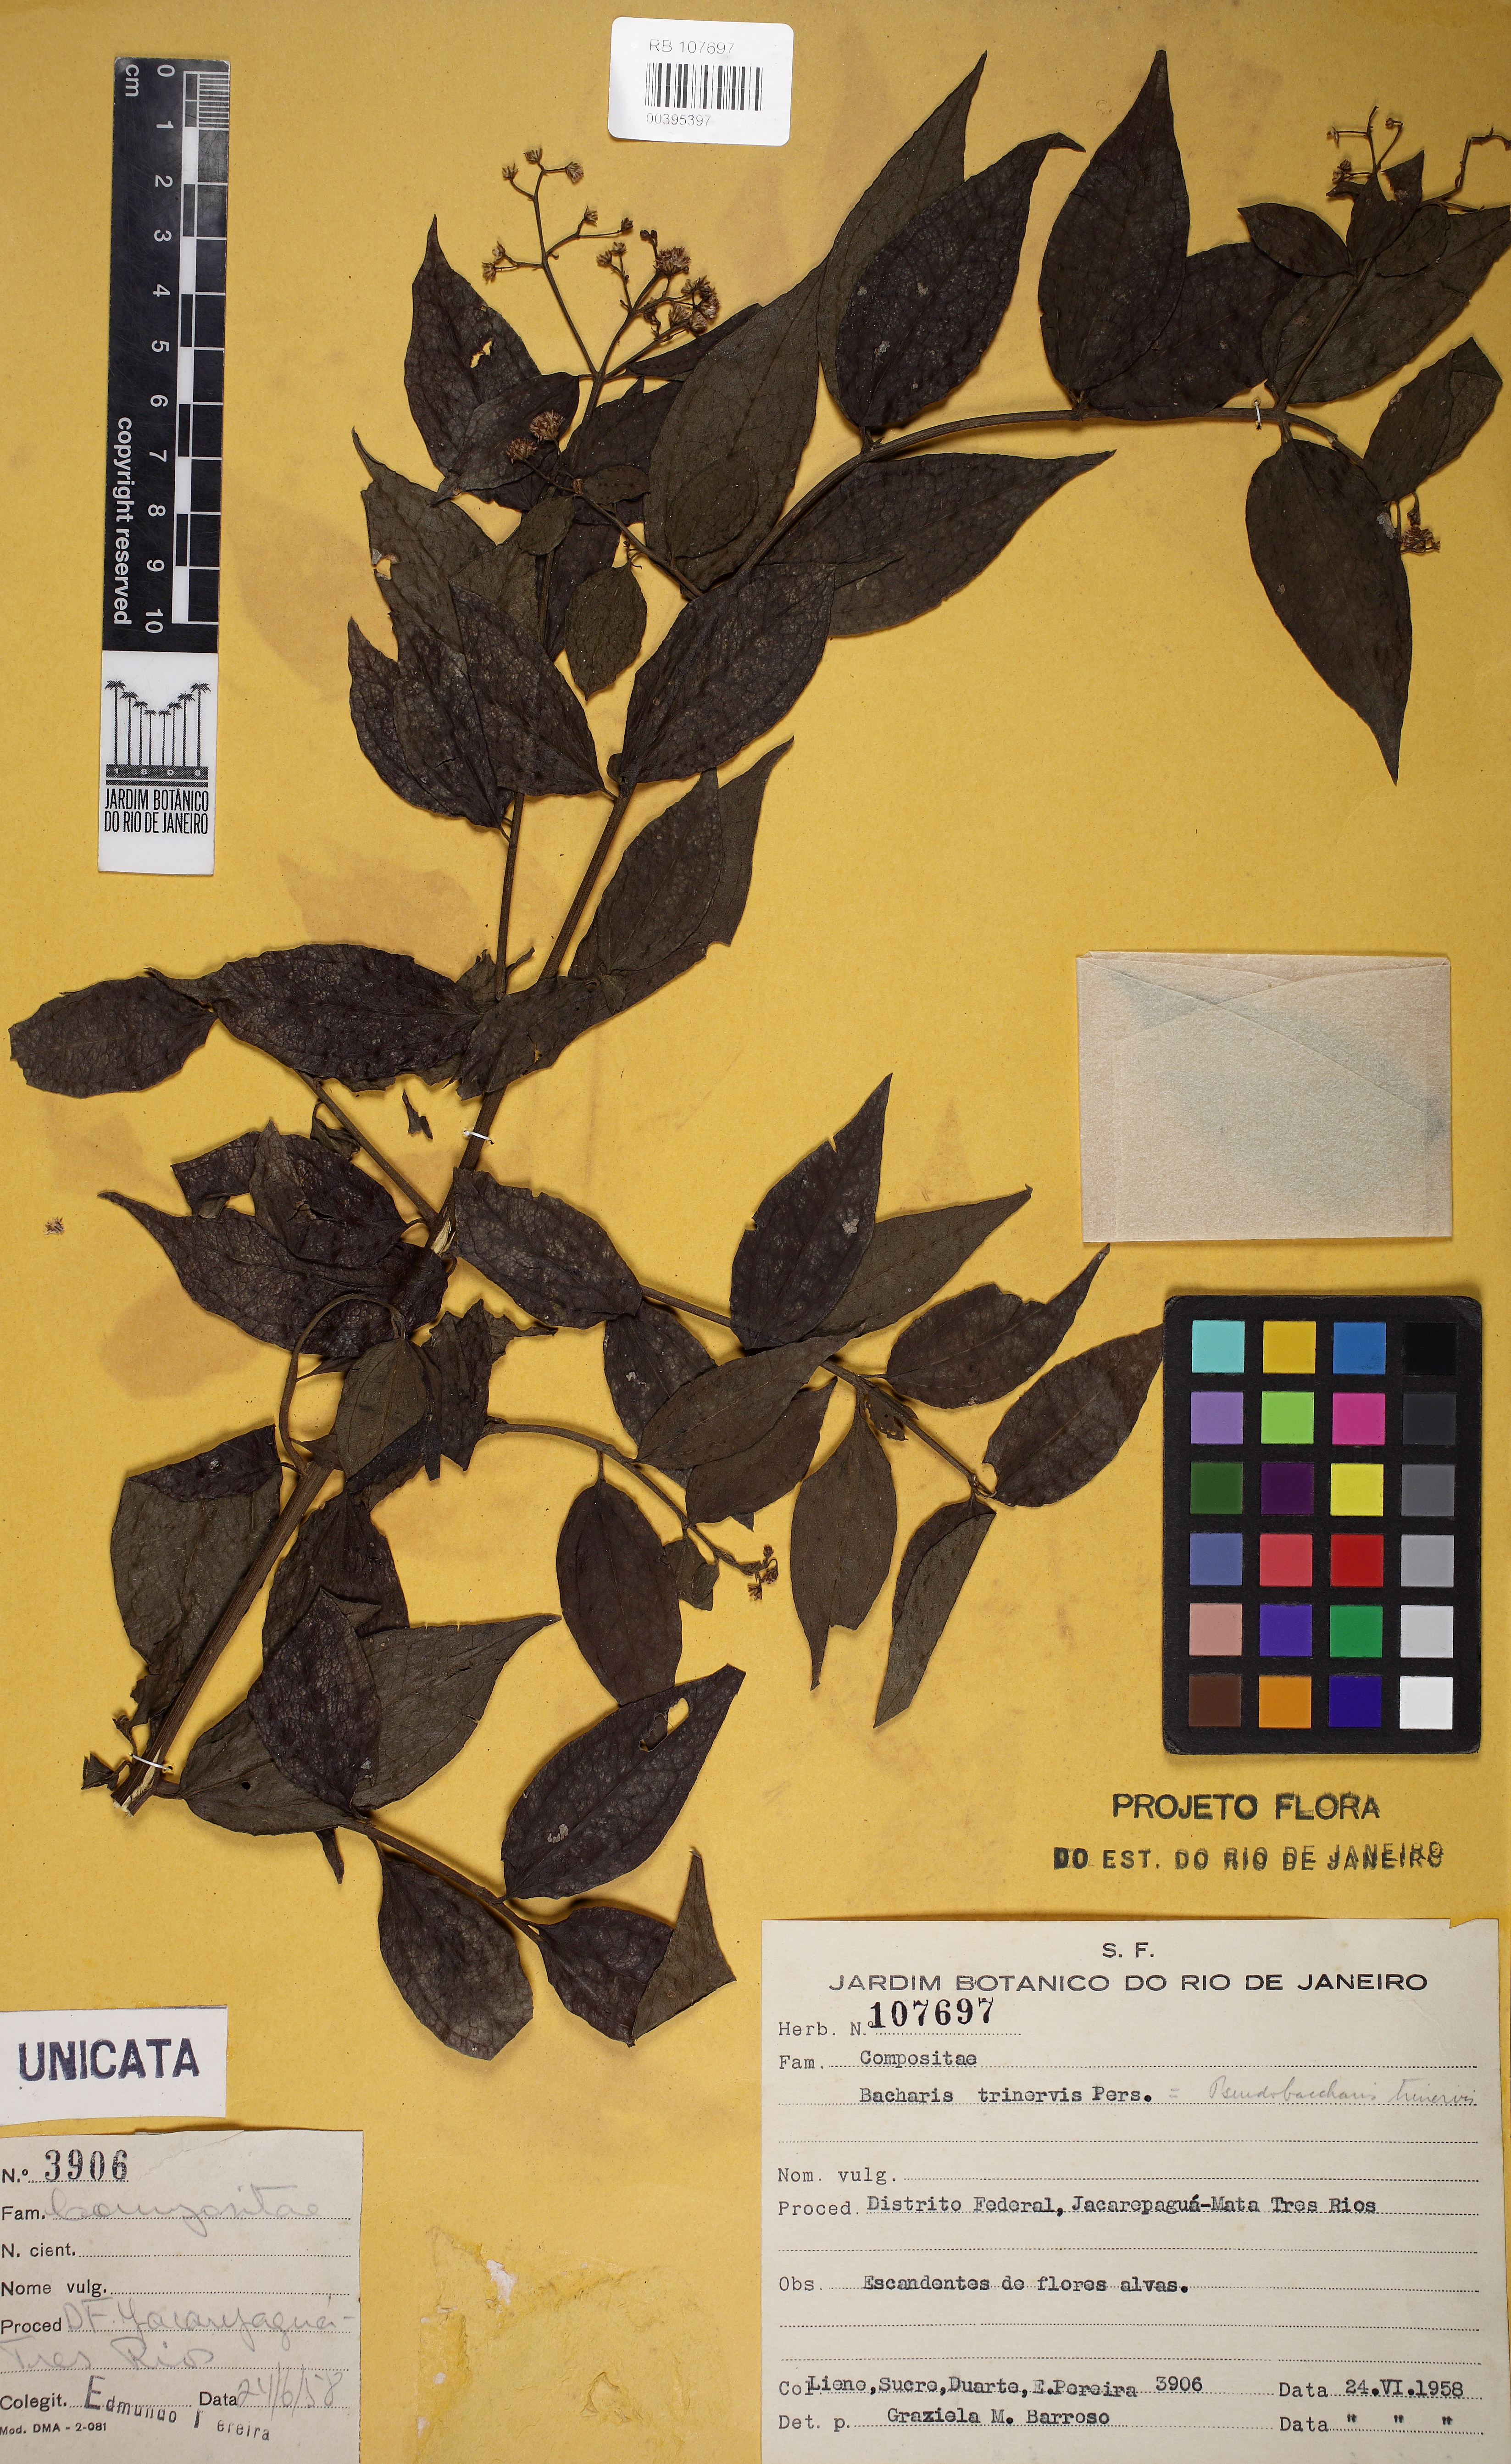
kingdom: Plantae
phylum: Tracheophyta
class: Magnoliopsida
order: Asterales
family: Asteraceae
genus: Baccharis
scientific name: Baccharis trinervis
